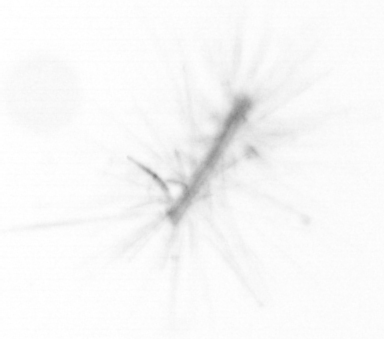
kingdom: Chromista
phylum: Ochrophyta
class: Bacillariophyceae
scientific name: Bacillariophyceae
